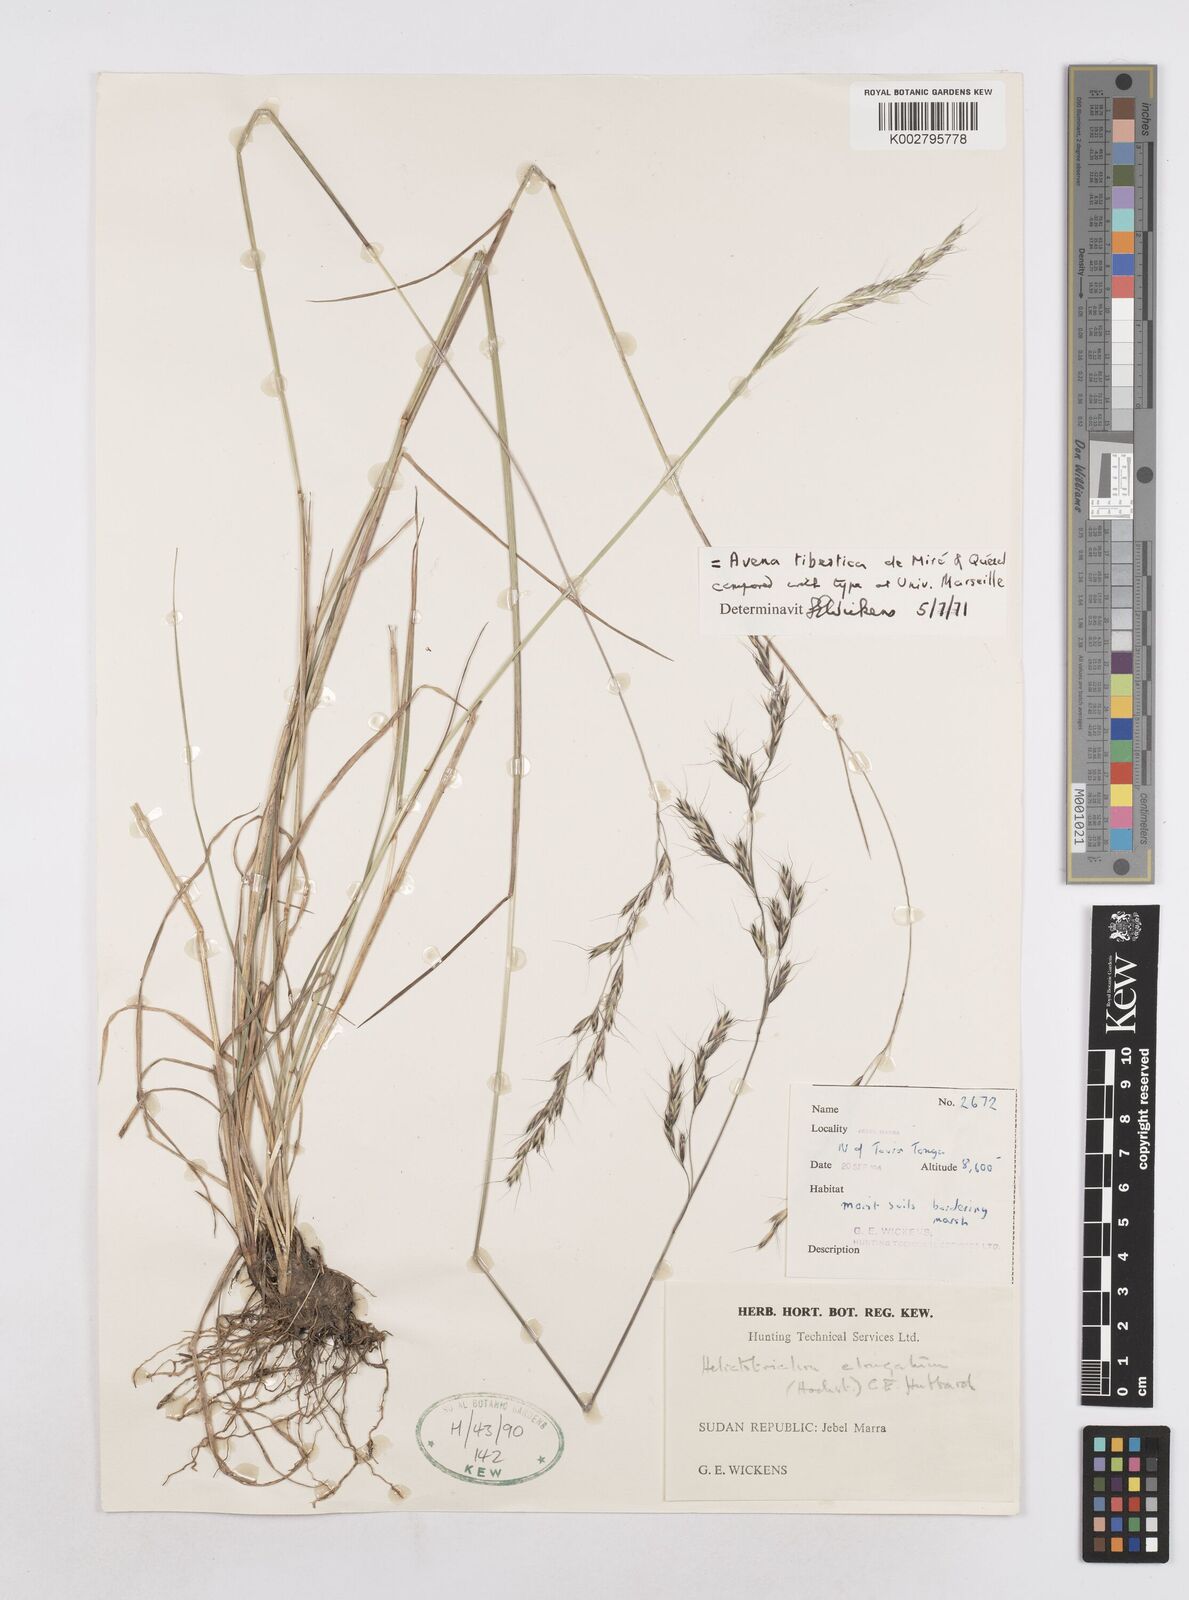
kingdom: Plantae
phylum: Tracheophyta
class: Liliopsida
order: Poales
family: Poaceae
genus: Trisetopsis
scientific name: Trisetopsis elongata
